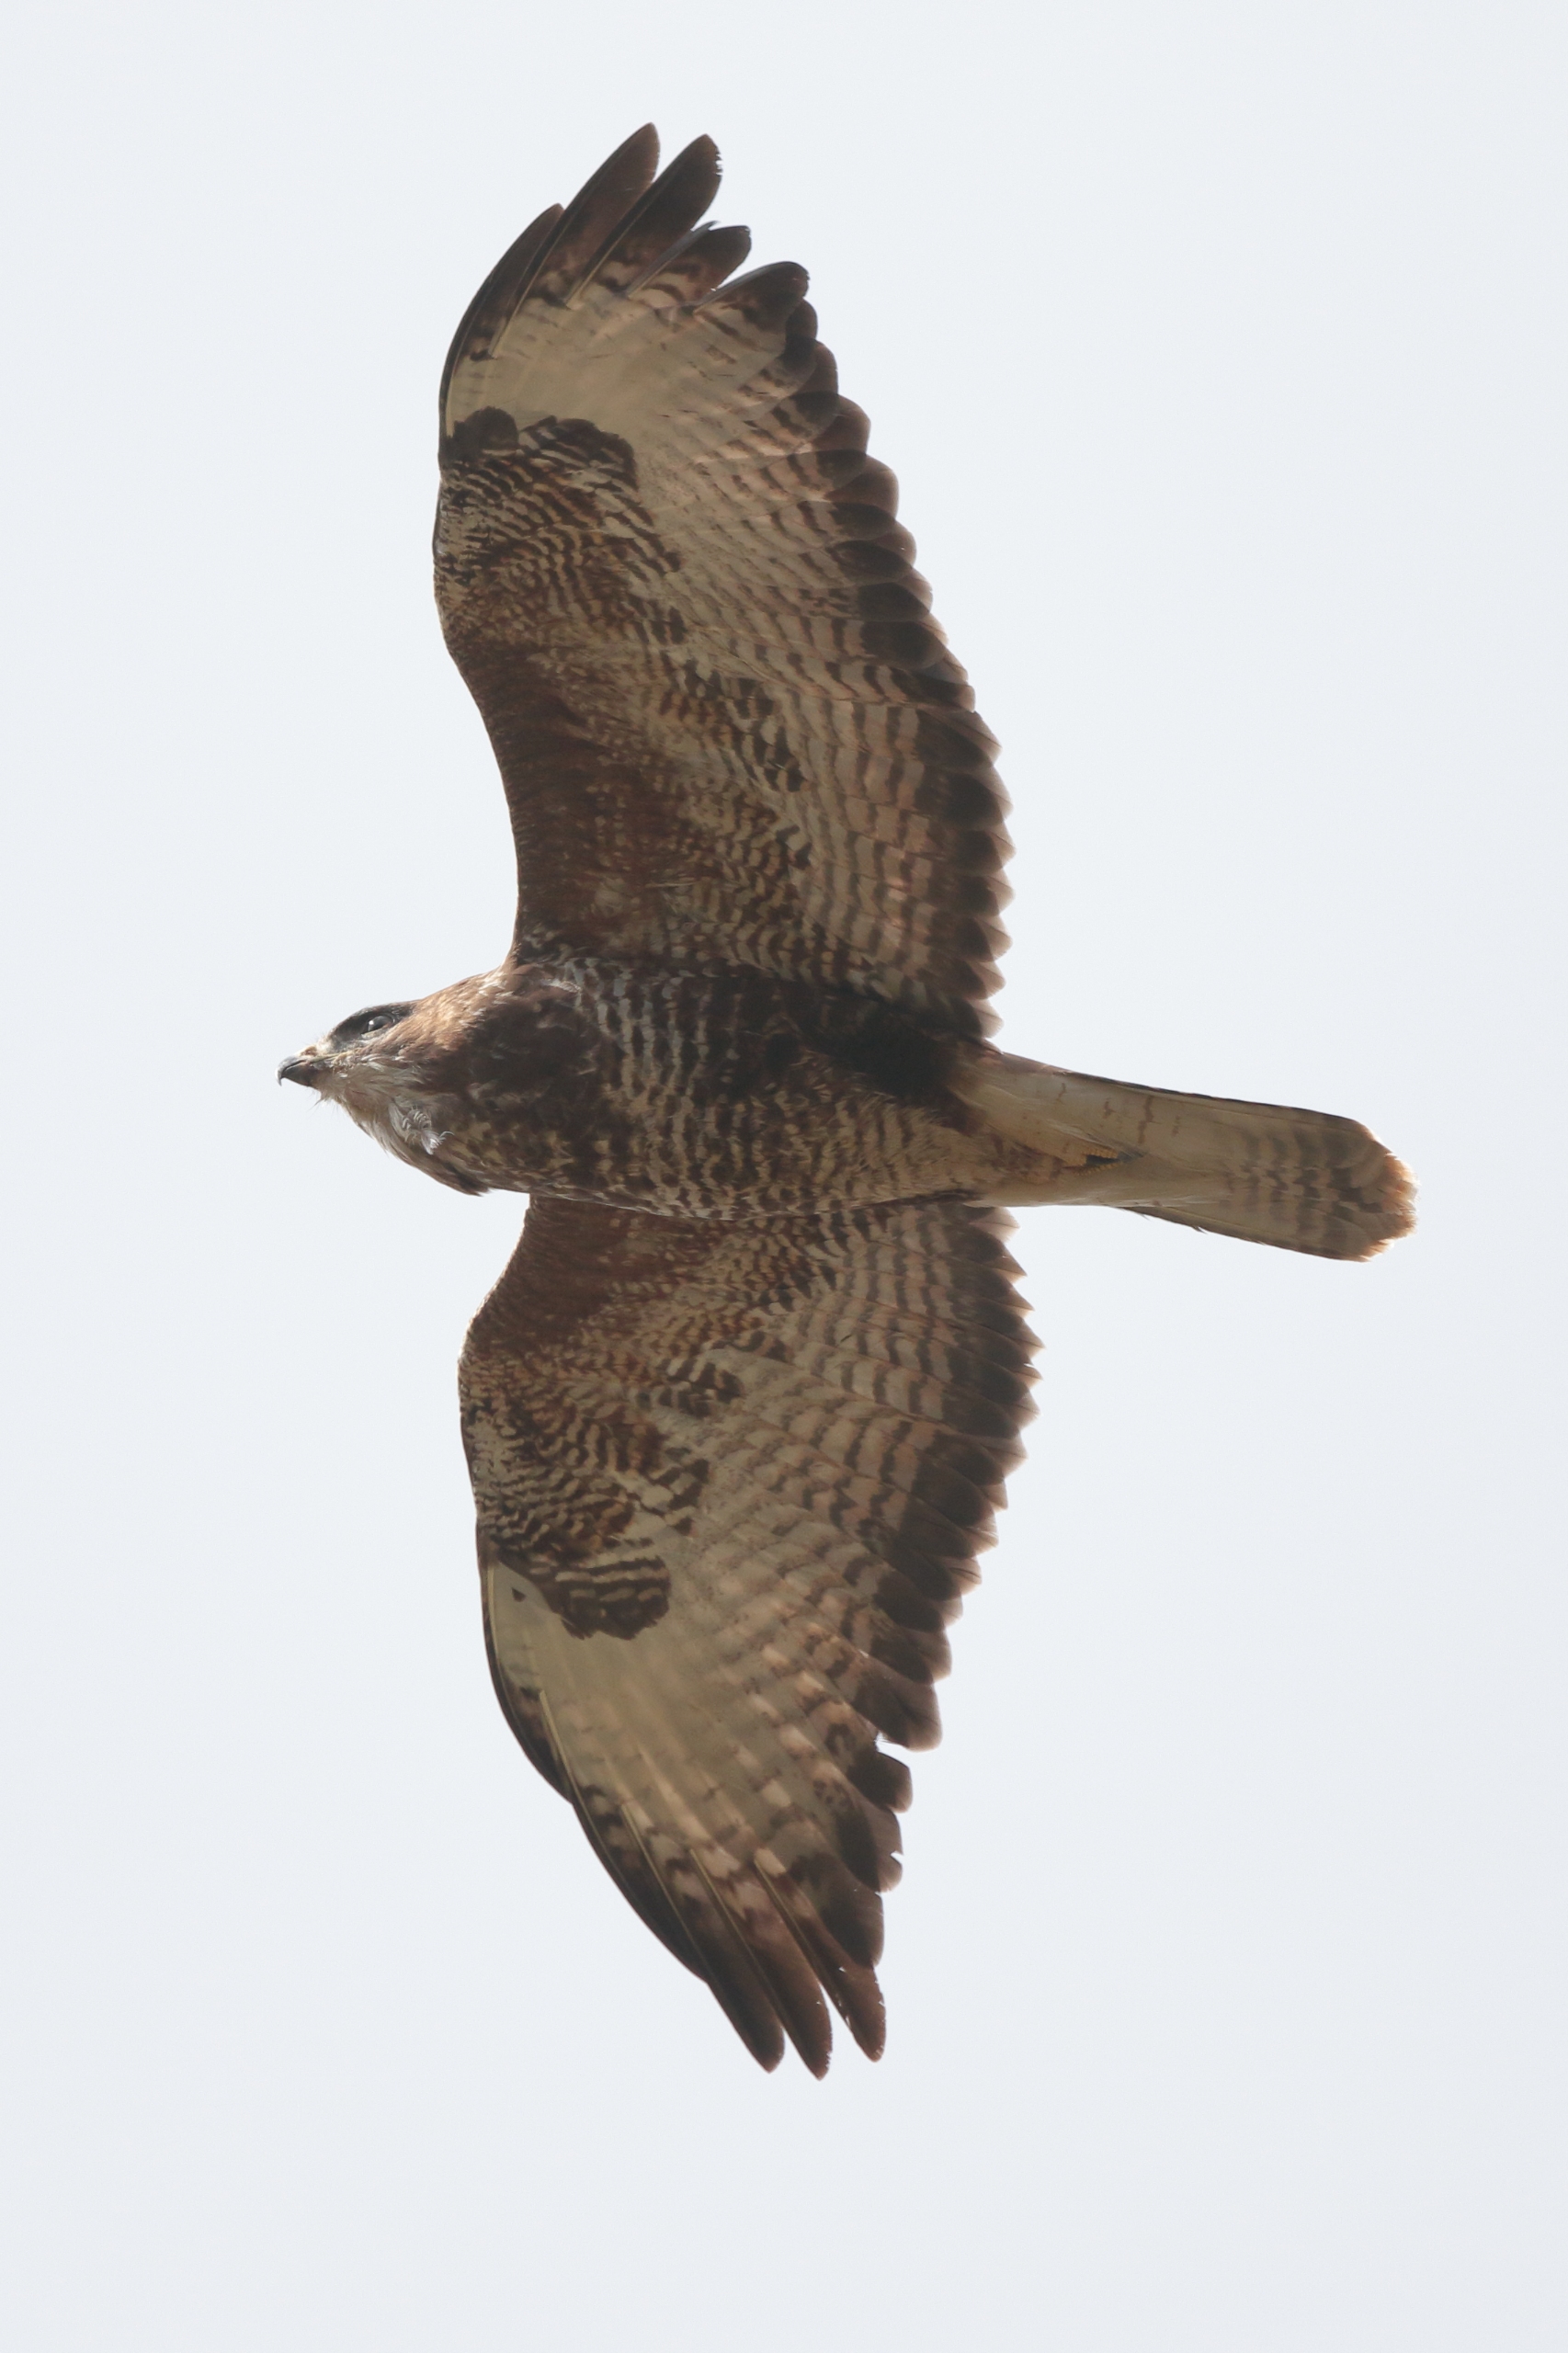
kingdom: Animalia
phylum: Chordata
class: Aves
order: Accipitriformes
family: Accipitridae
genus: Buteo
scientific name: Buteo buteo
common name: Musvåge
